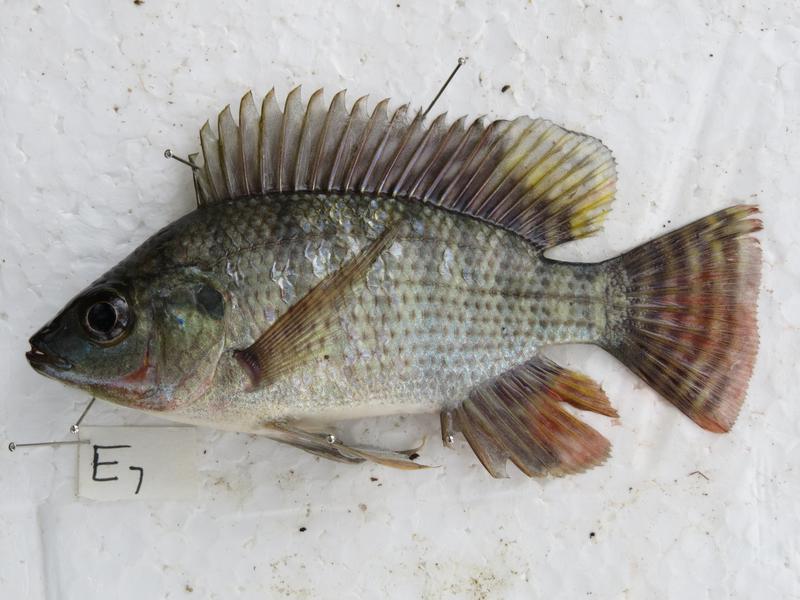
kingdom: Animalia
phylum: Chordata
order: Perciformes
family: Cichlidae
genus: Oreochromis
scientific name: Oreochromis niloticus
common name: Nile tilapia
